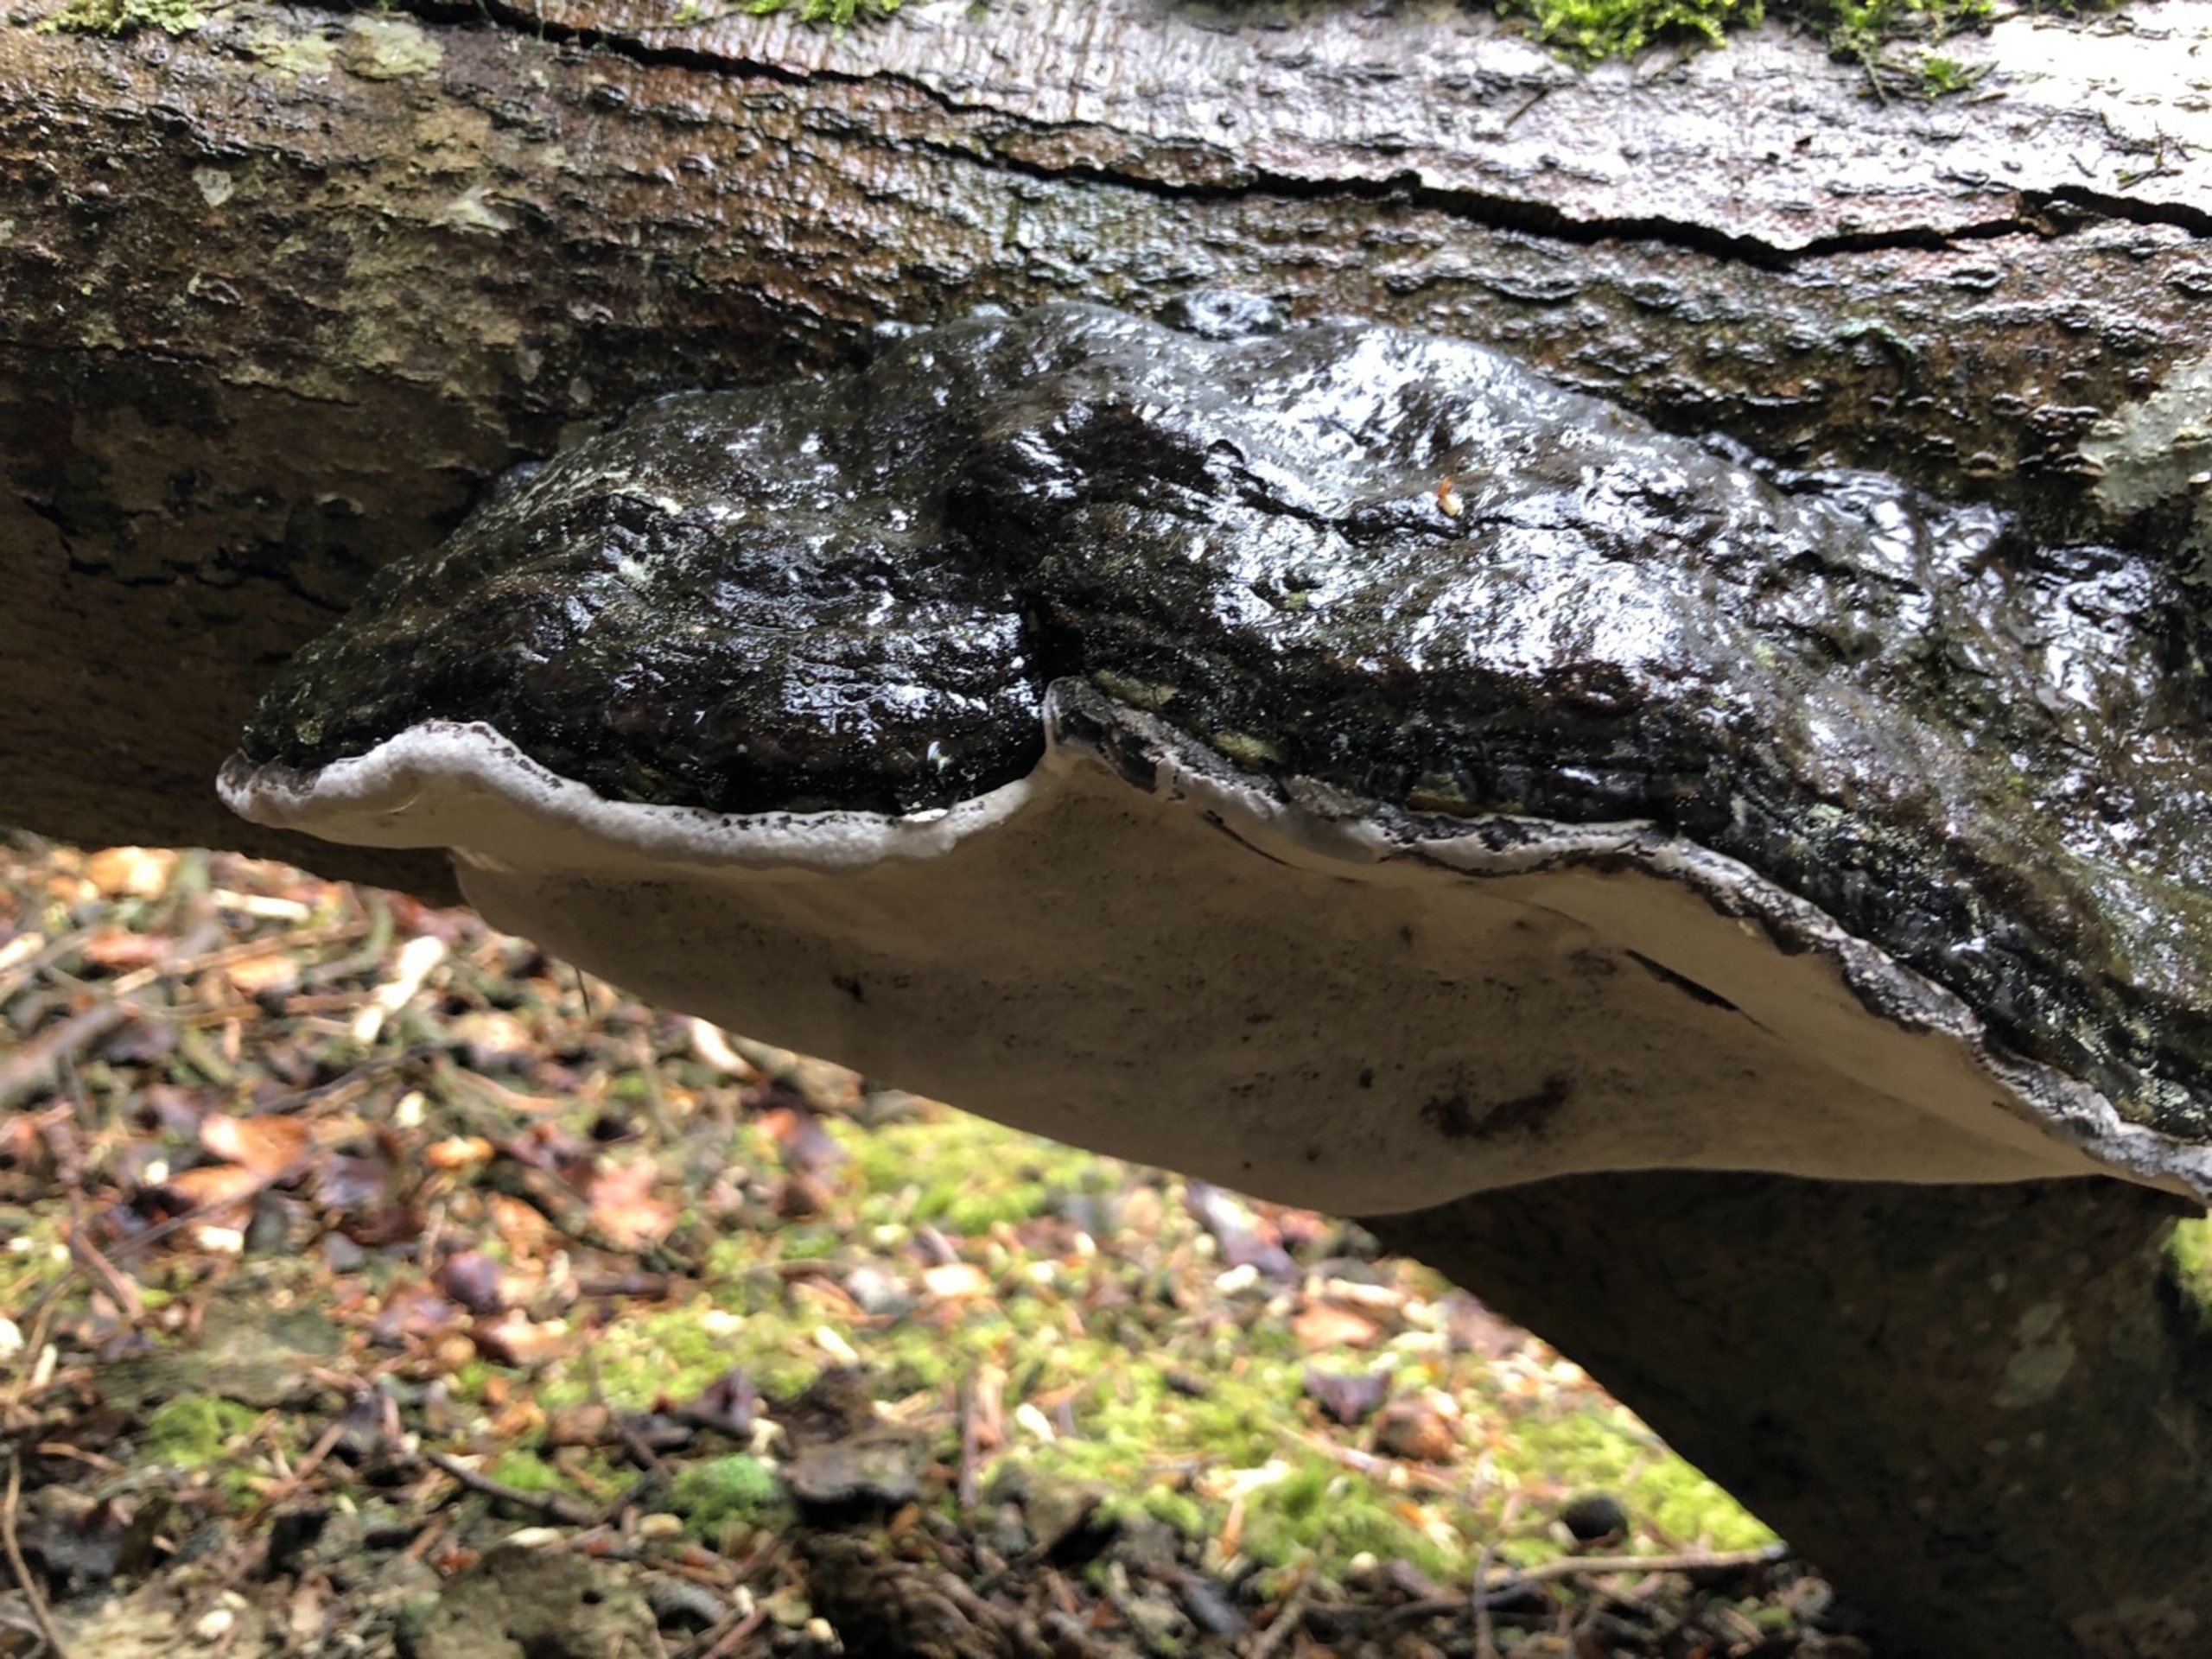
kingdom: Fungi
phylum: Basidiomycota
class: Agaricomycetes
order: Polyporales
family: Polyporaceae
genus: Fomes
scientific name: Fomes fomentarius
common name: Tøndersvamp
